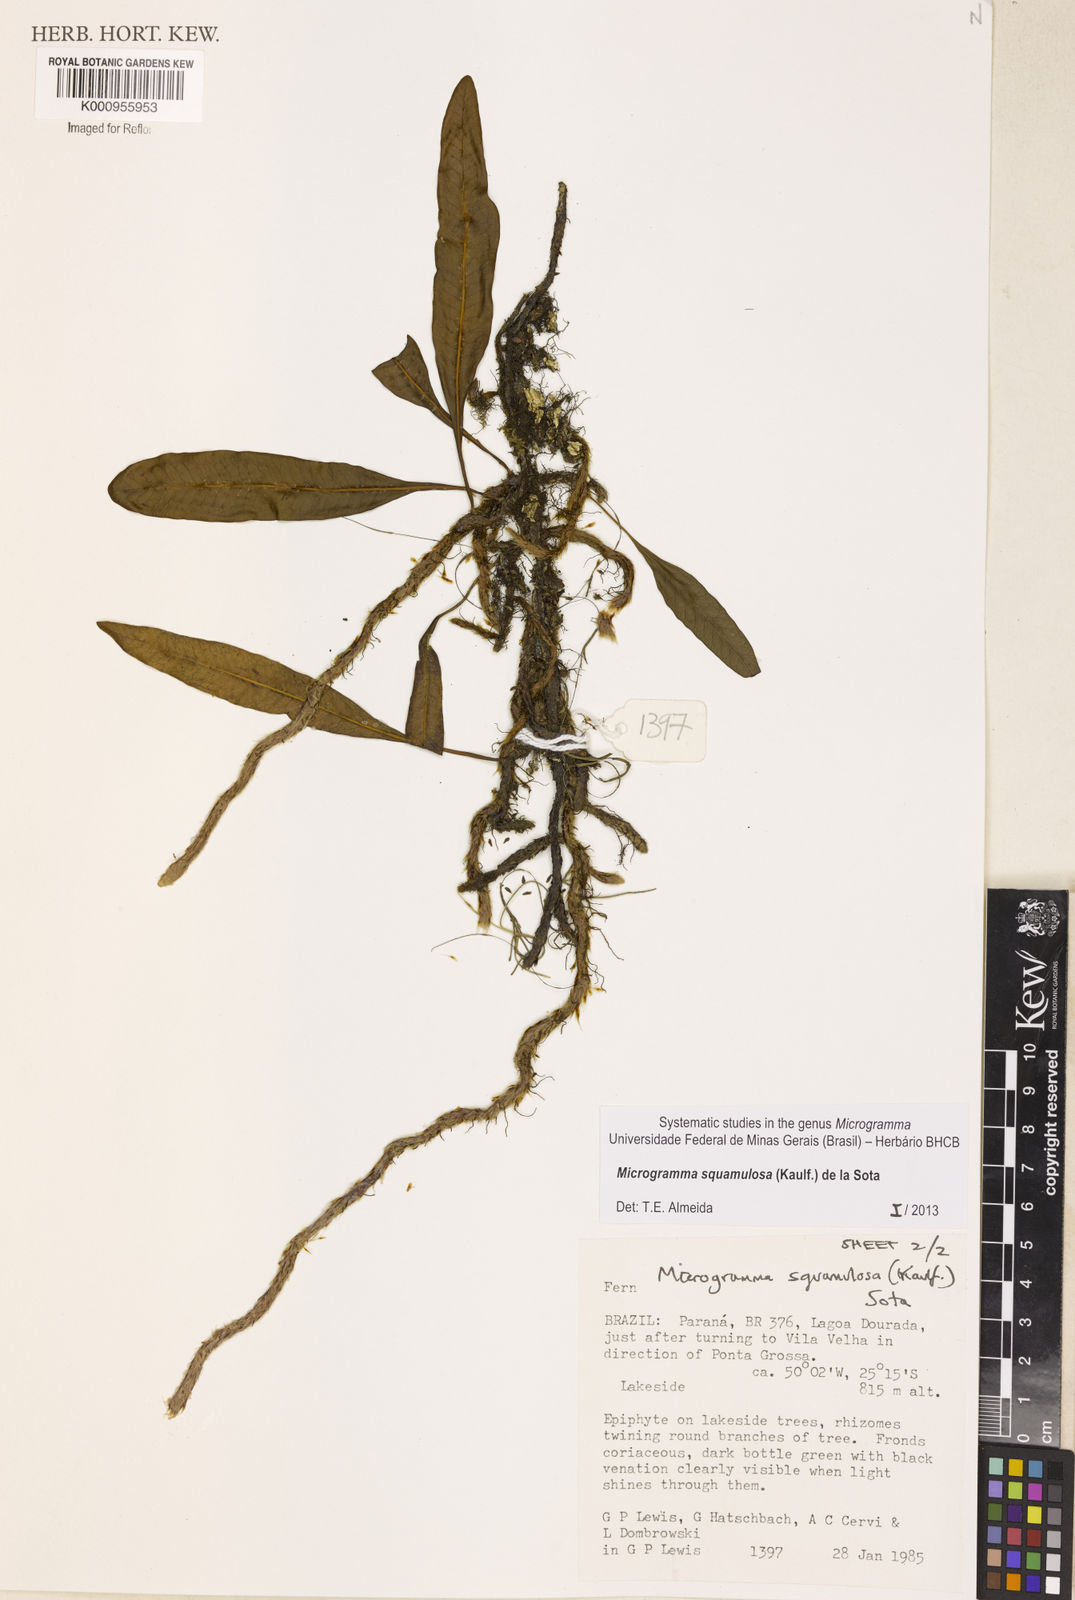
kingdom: Plantae
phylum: Tracheophyta
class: Polypodiopsida
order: Polypodiales
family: Polypodiaceae
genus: Microgramma
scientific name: Microgramma squamulosa
